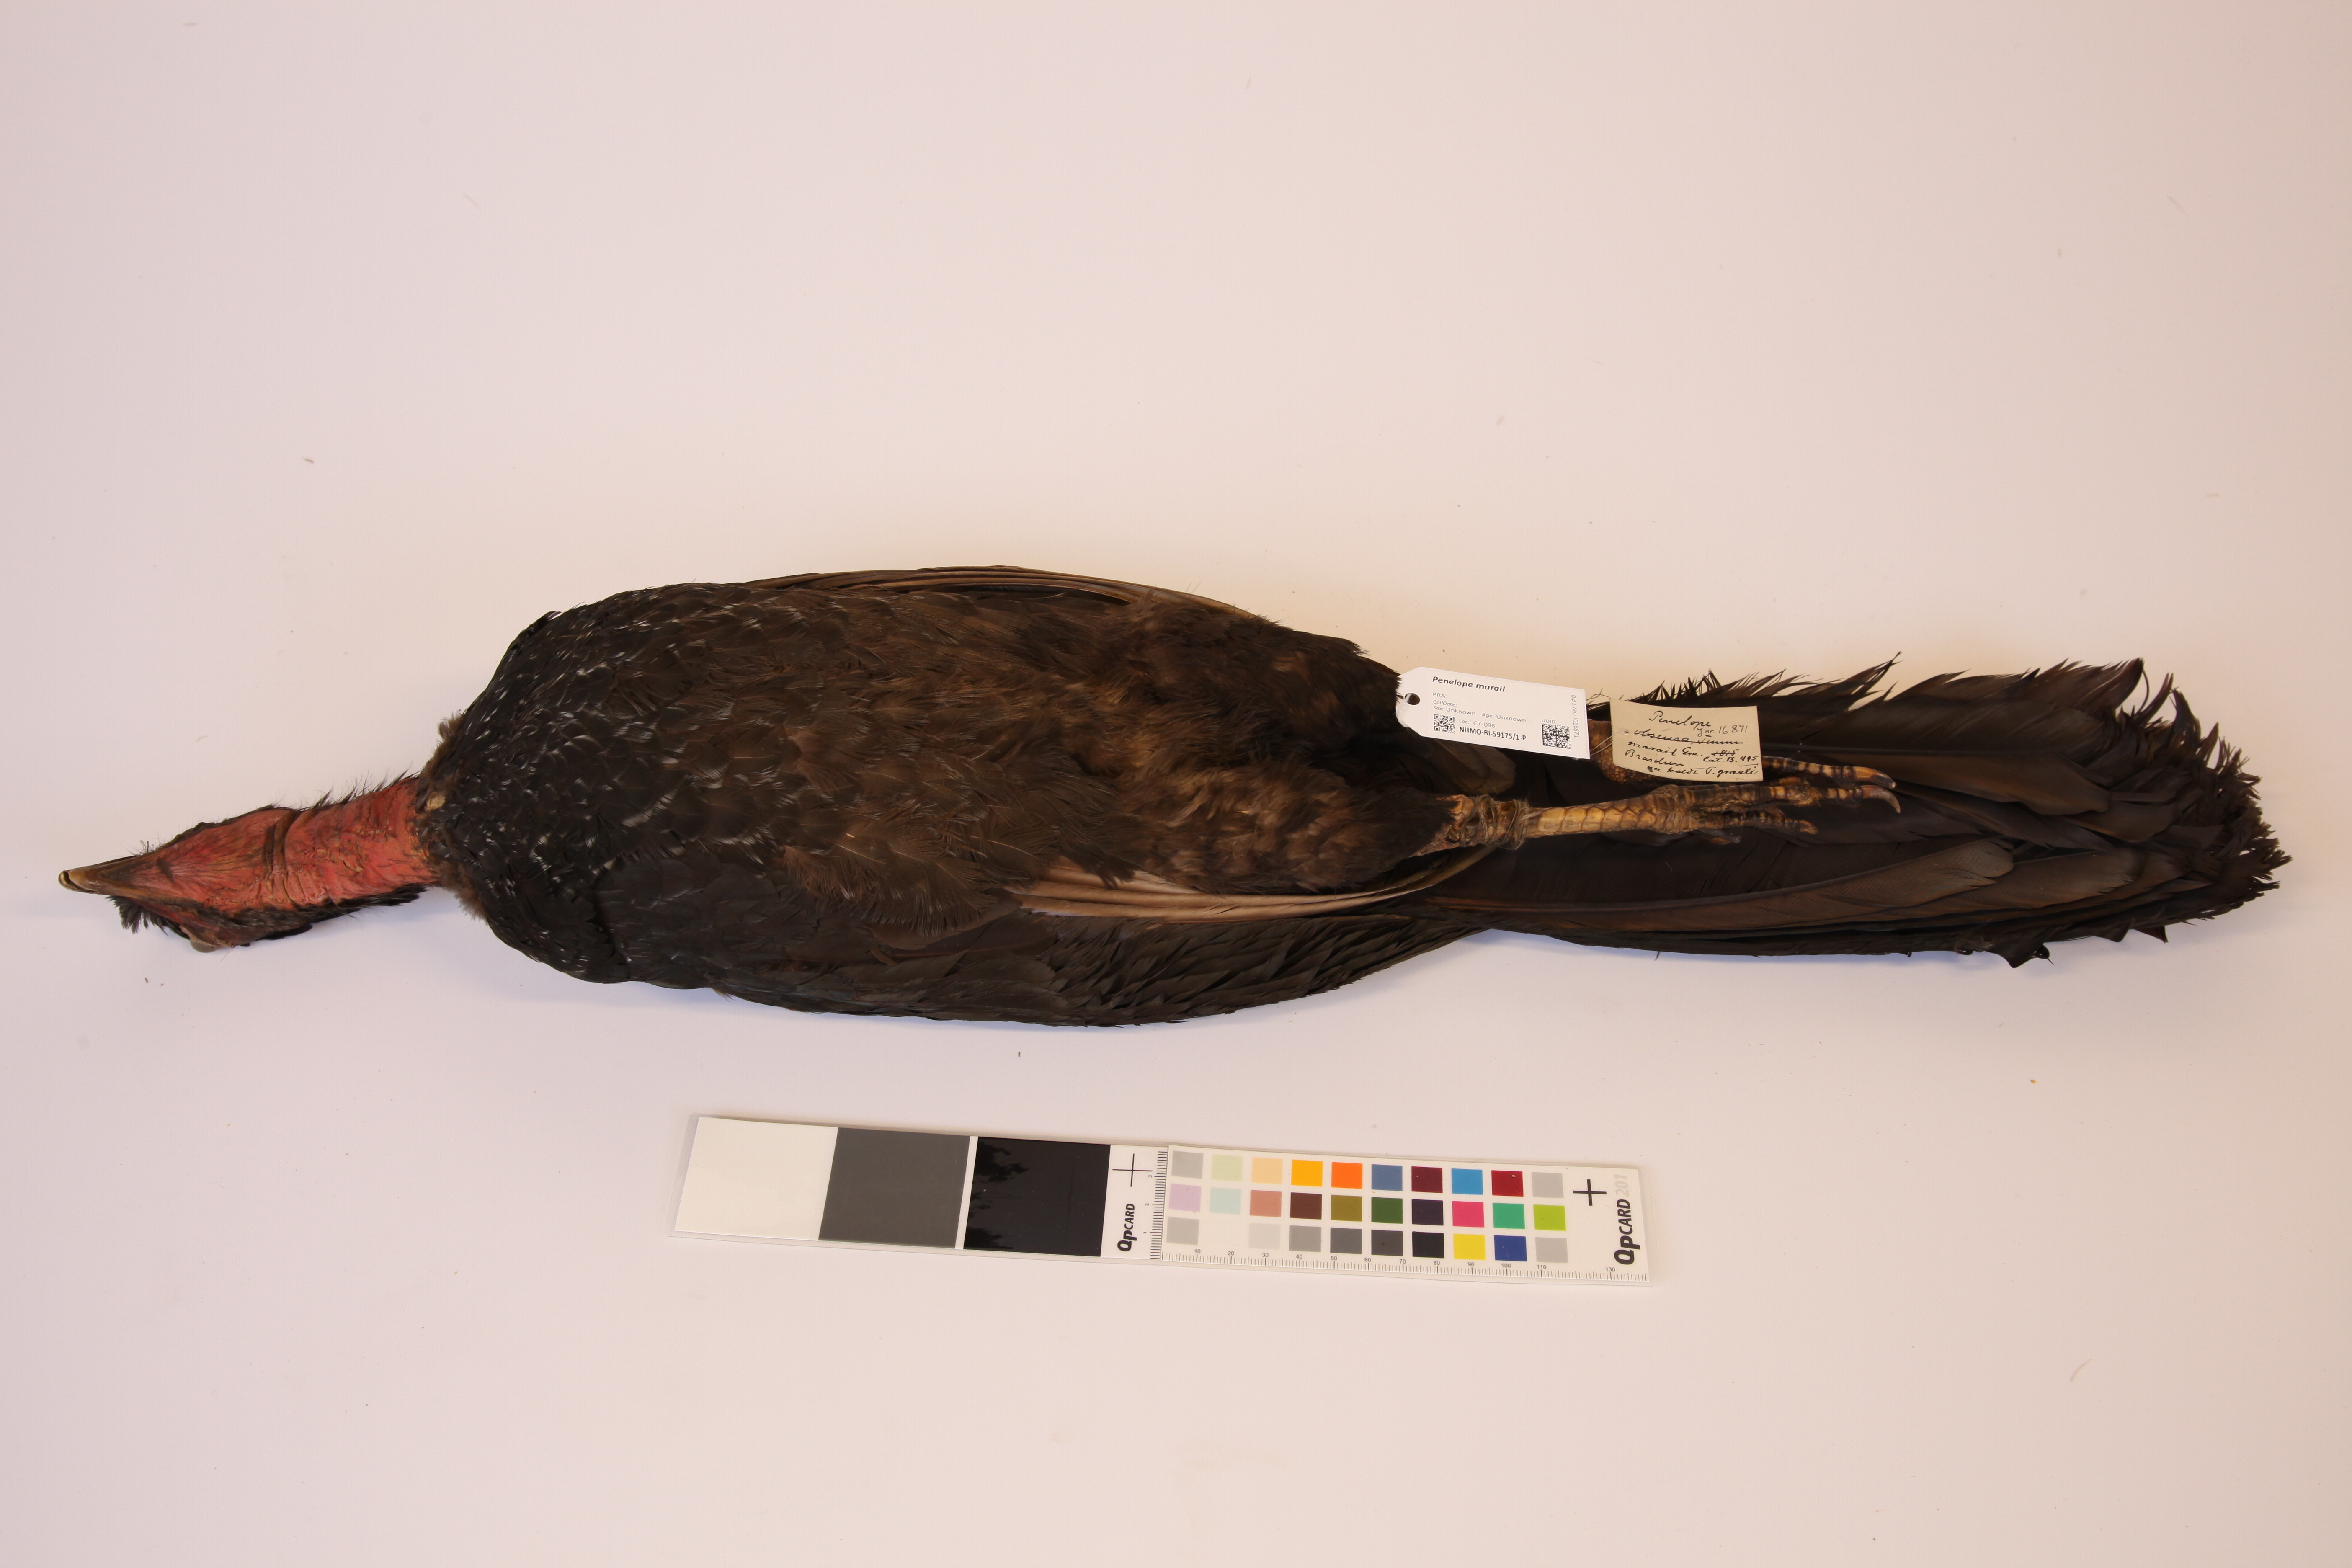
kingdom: Animalia
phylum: Chordata
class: Aves
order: Galliformes
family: Cracidae
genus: Penelope
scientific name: Penelope marail
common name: Marail guan
